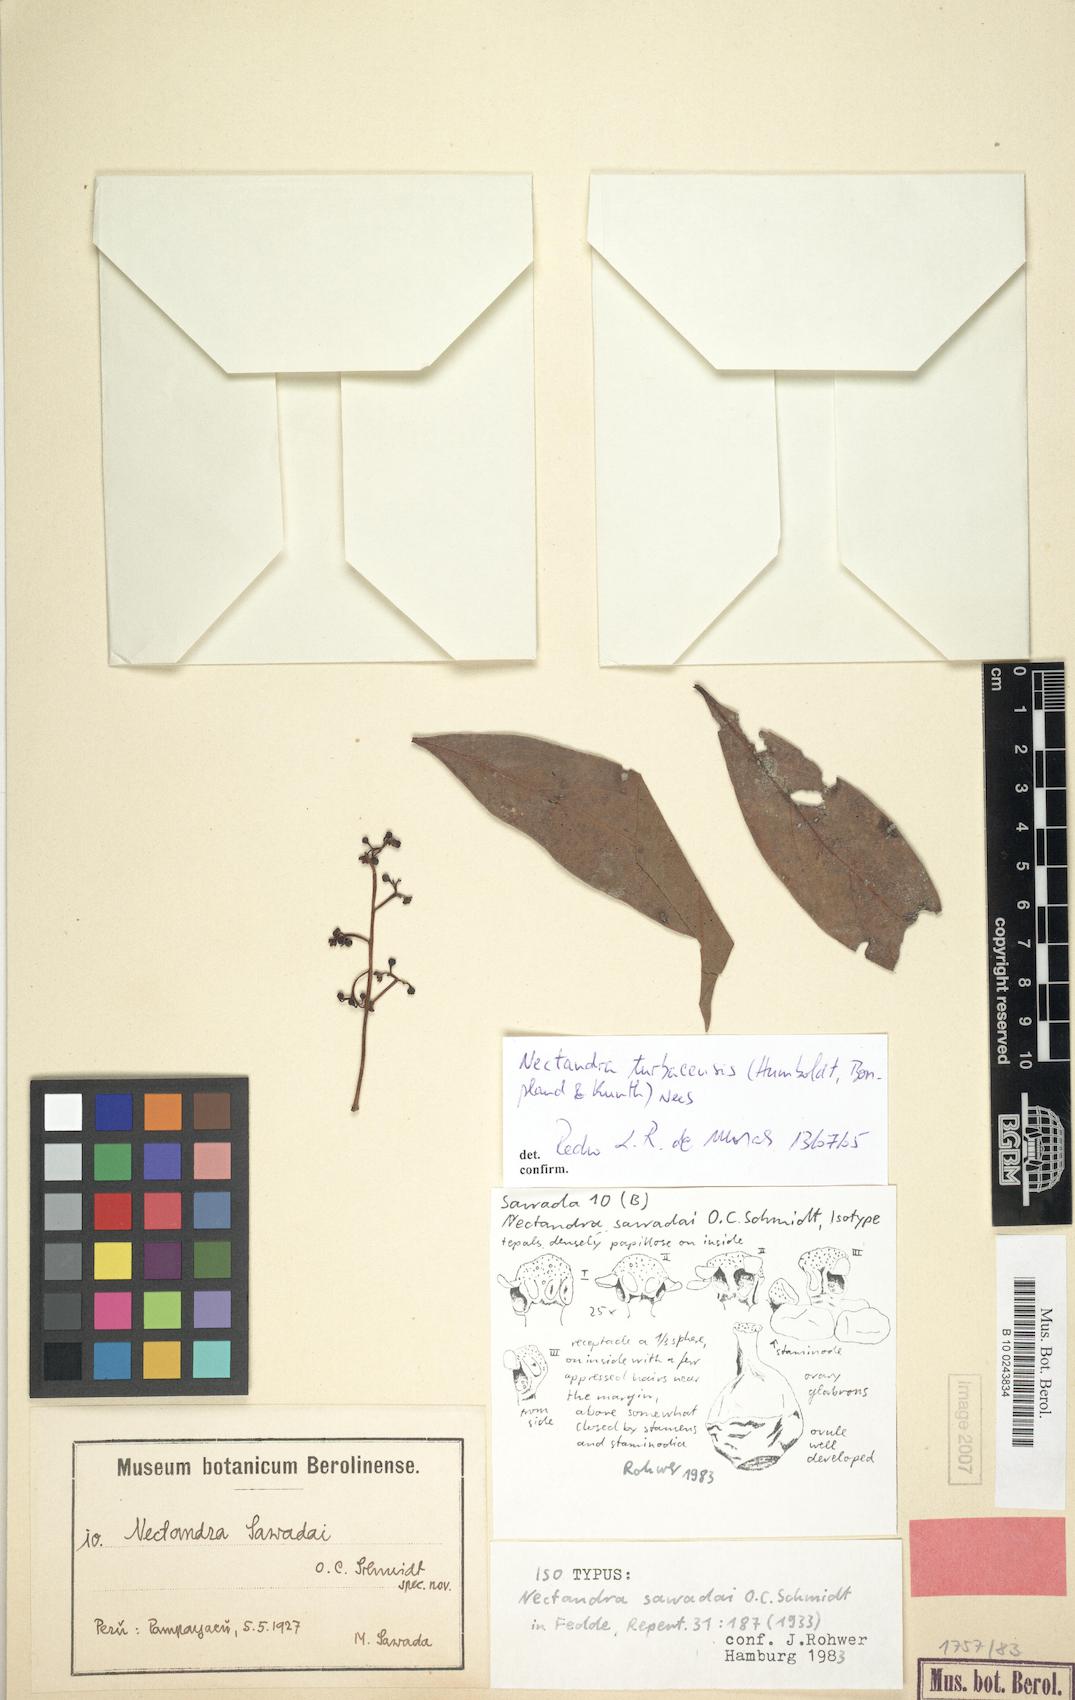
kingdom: Plantae
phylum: Tracheophyta
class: Magnoliopsida
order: Laurales
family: Lauraceae
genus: Nectandra
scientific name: Nectandra turbacensis
